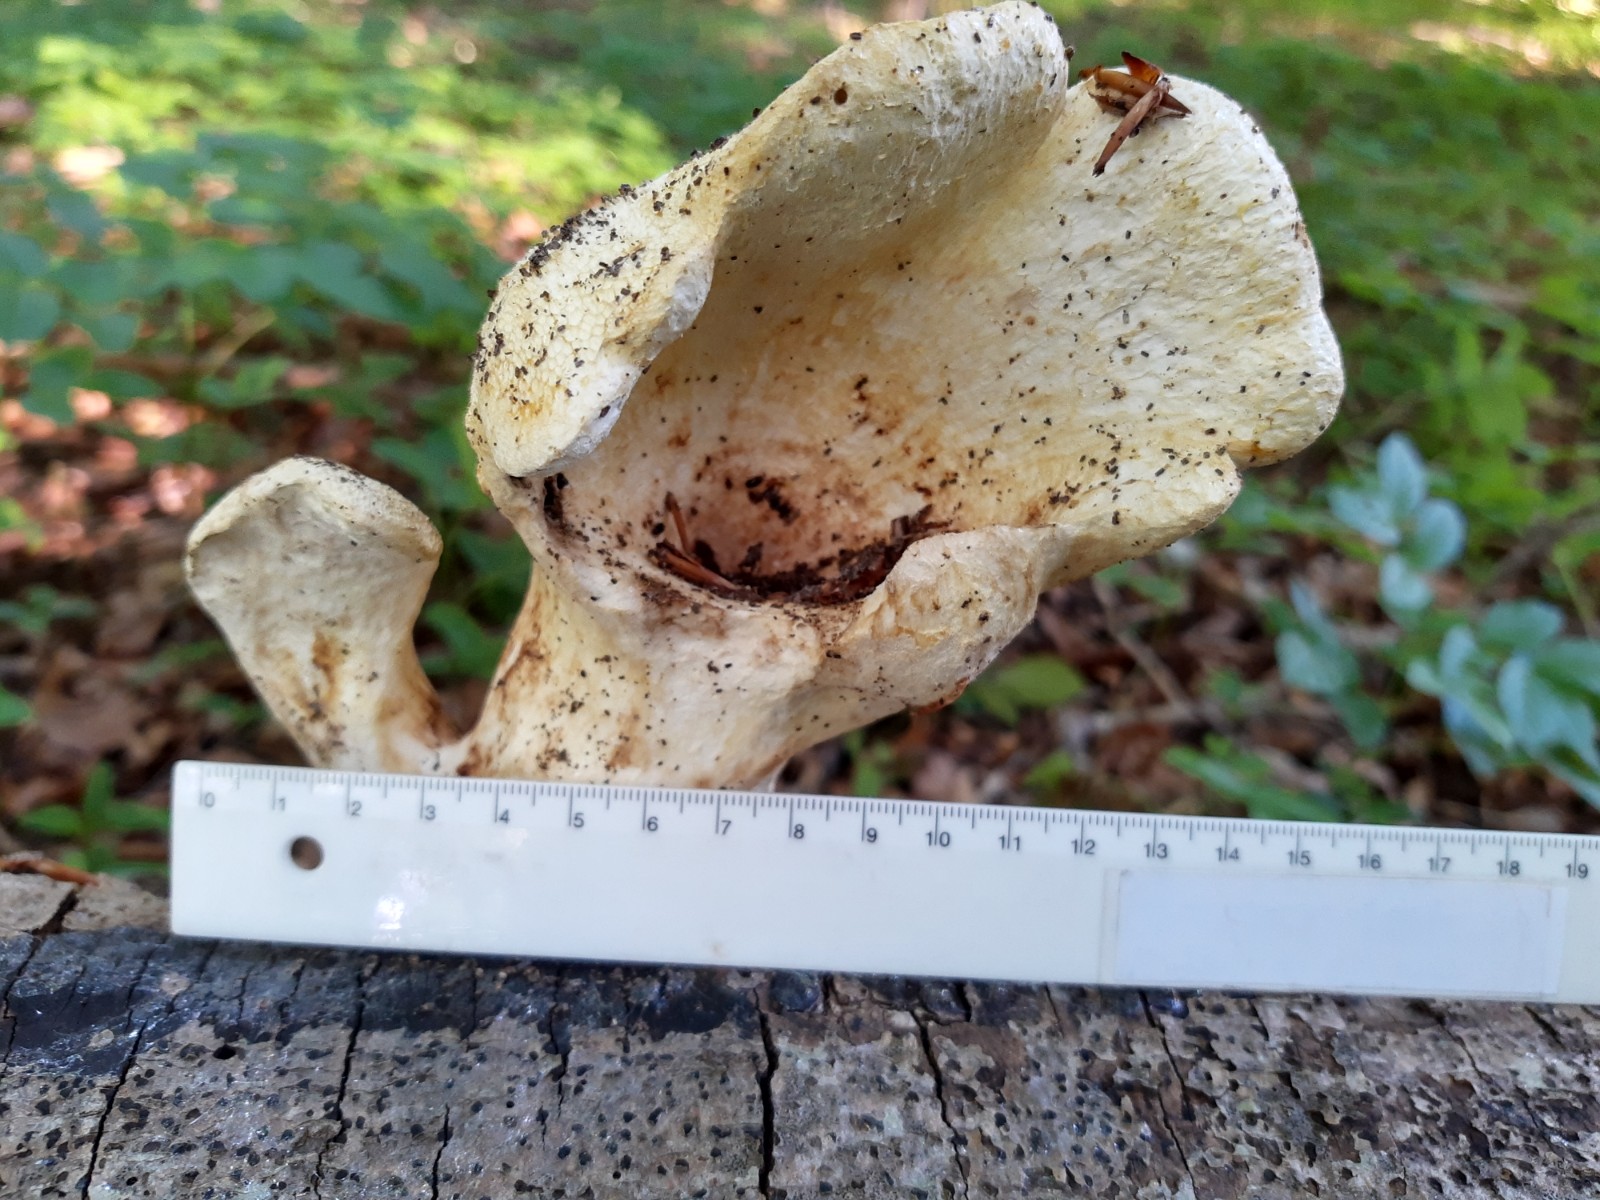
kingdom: Fungi
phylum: Basidiomycota
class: Agaricomycetes
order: Polyporales
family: Polyporaceae
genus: Cerioporus
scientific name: Cerioporus squamosus
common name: skællet stilkporesvamp
